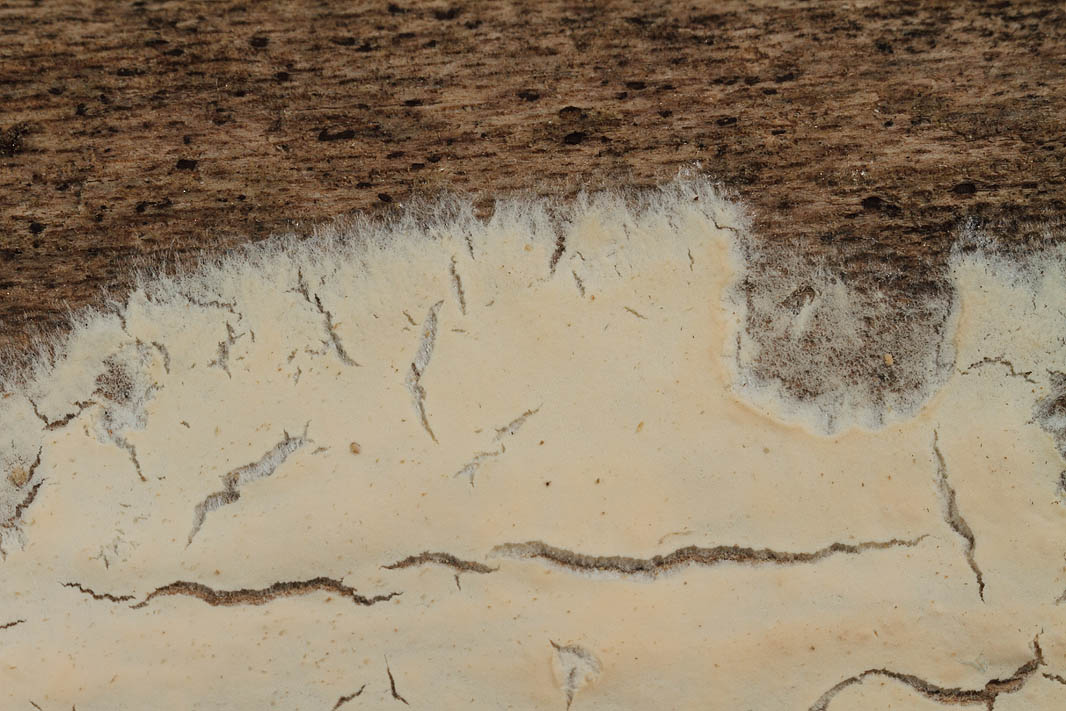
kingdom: Fungi
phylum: Basidiomycota
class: Agaricomycetes
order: Agaricales
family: Cyphellaceae
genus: Granulobasidium
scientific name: Granulobasidium vellereum
